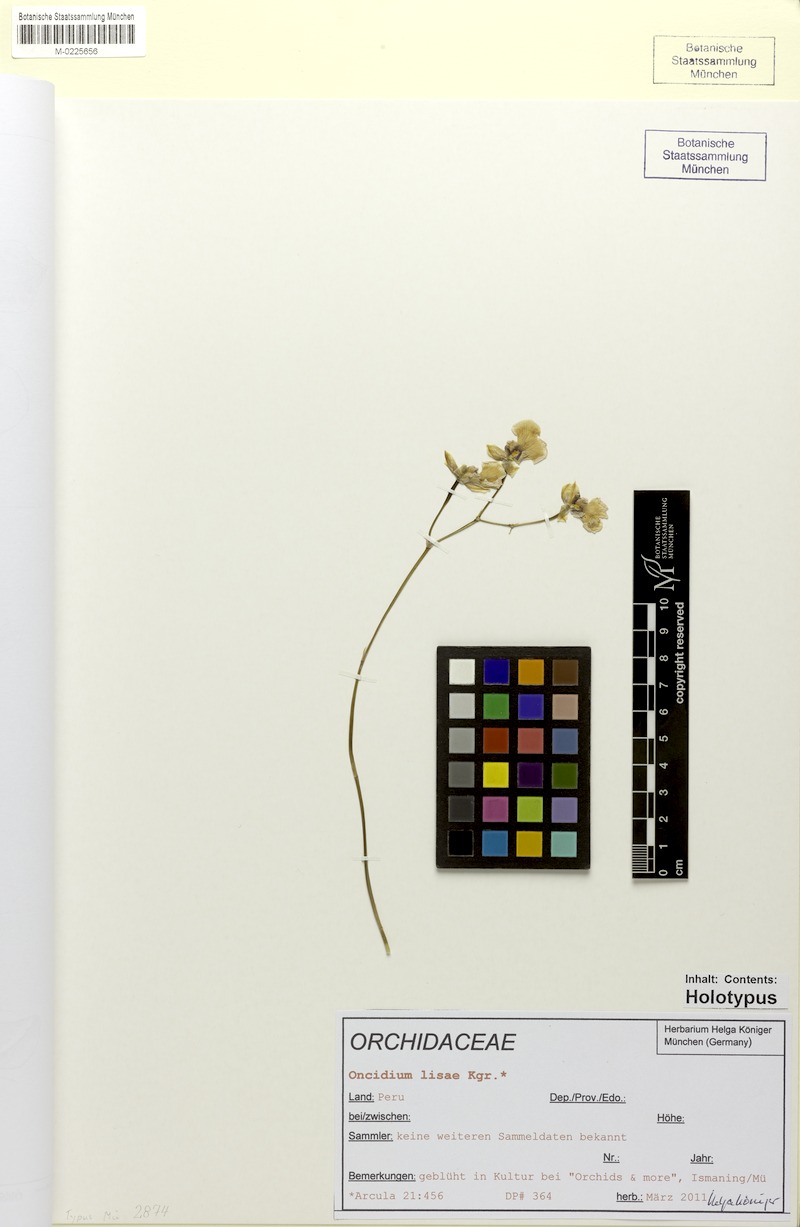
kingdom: Plantae
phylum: Tracheophyta
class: Liliopsida
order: Asparagales
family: Orchidaceae
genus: Oncidium
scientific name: Oncidium lisae
